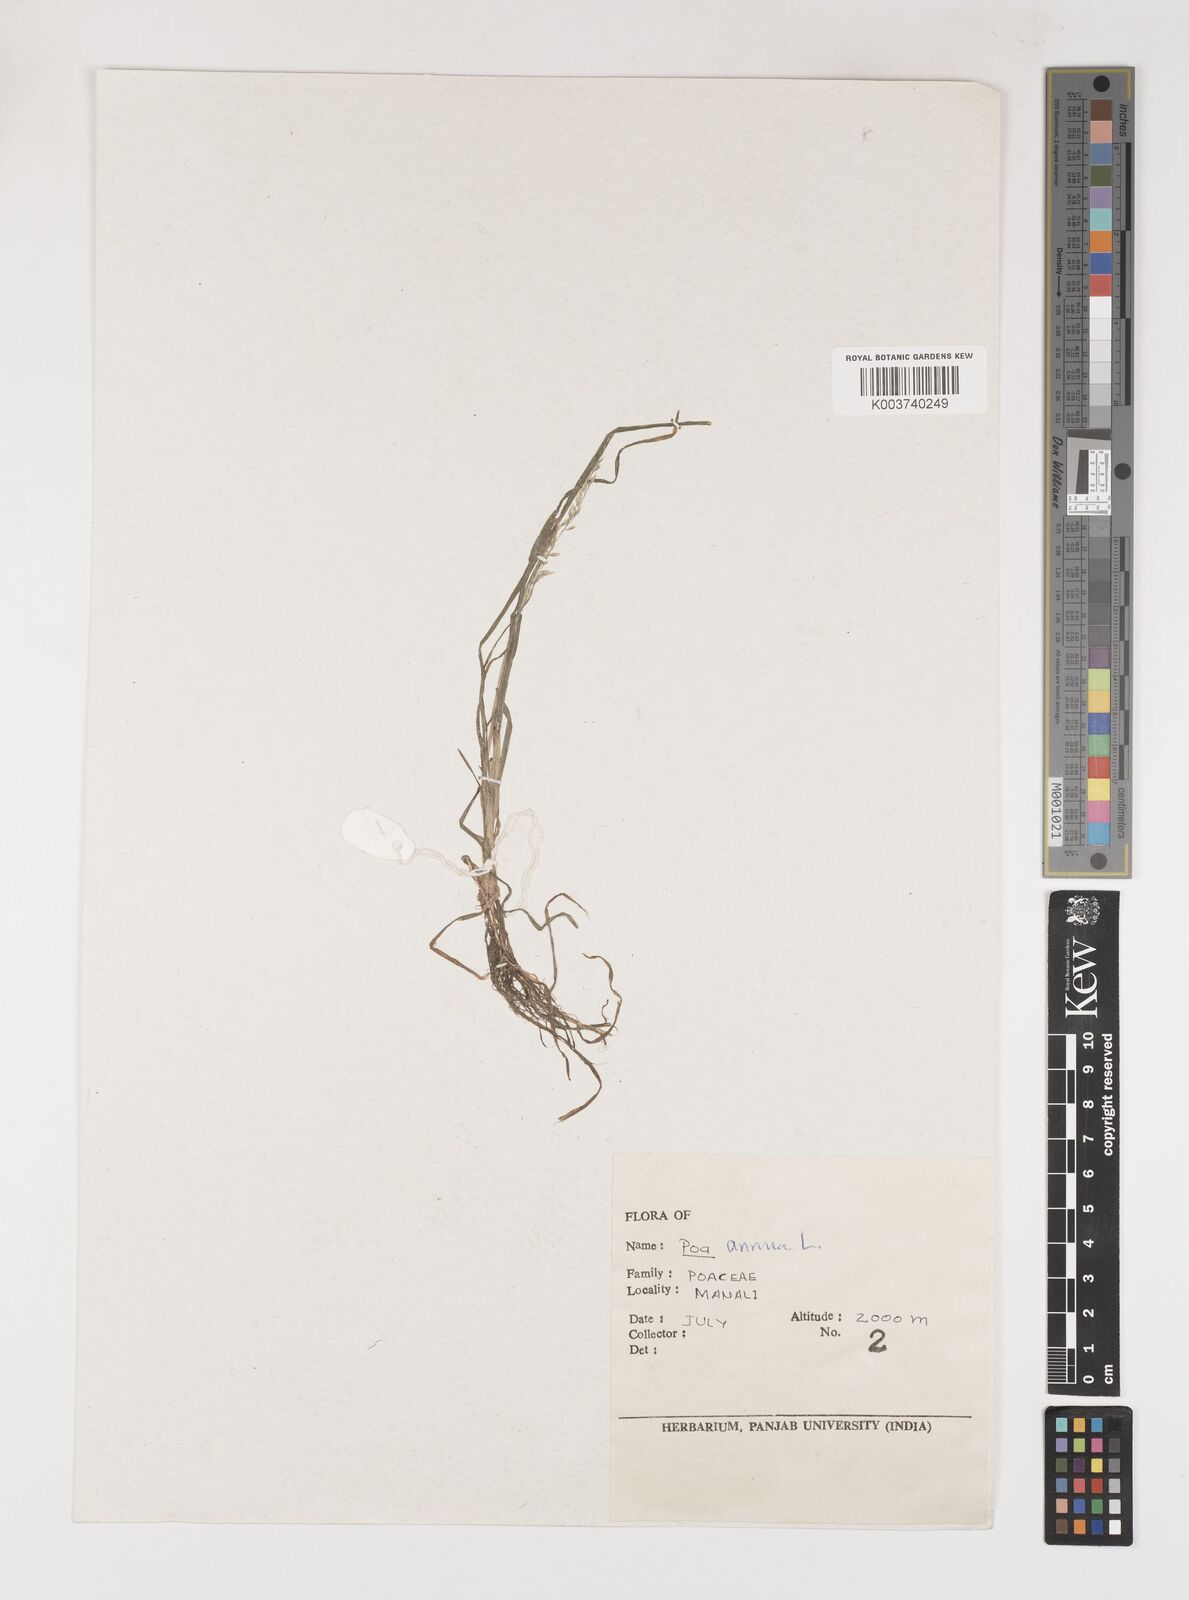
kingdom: Plantae
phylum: Tracheophyta
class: Liliopsida
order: Poales
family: Poaceae
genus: Poa
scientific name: Poa annua
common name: Annual bluegrass
